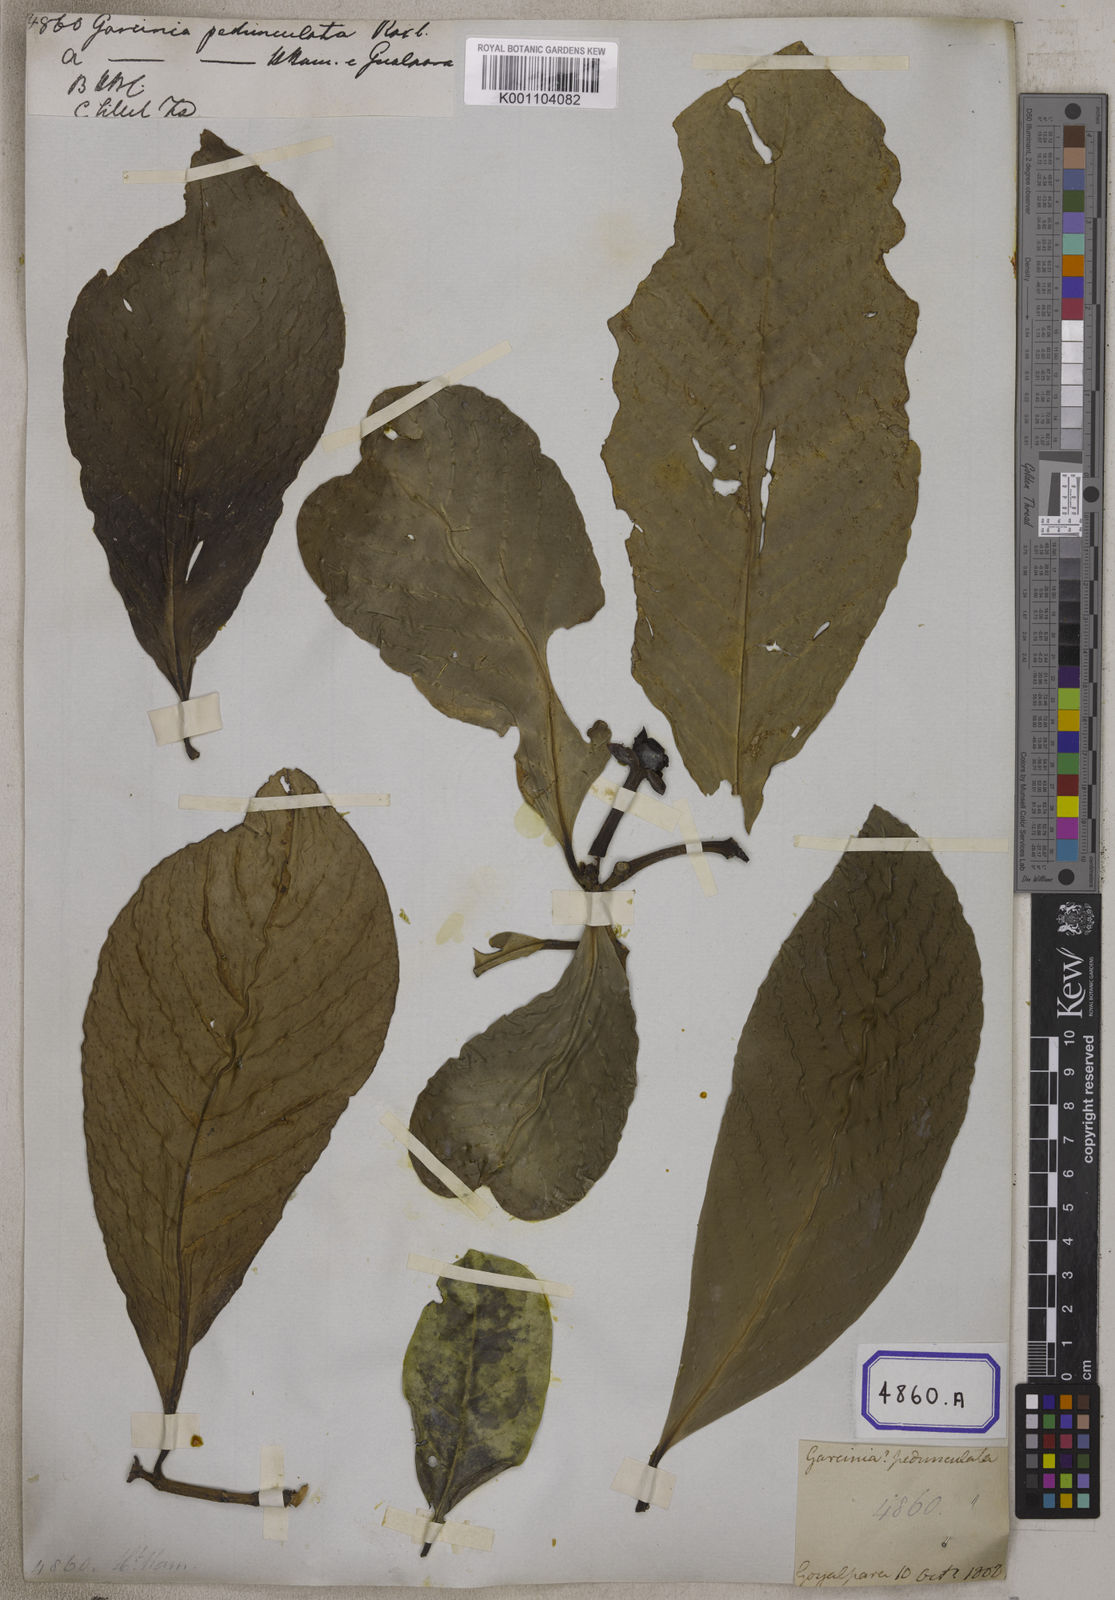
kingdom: Plantae
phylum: Tracheophyta
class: Magnoliopsida
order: Malpighiales
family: Clusiaceae
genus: Garcinia
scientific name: Garcinia
